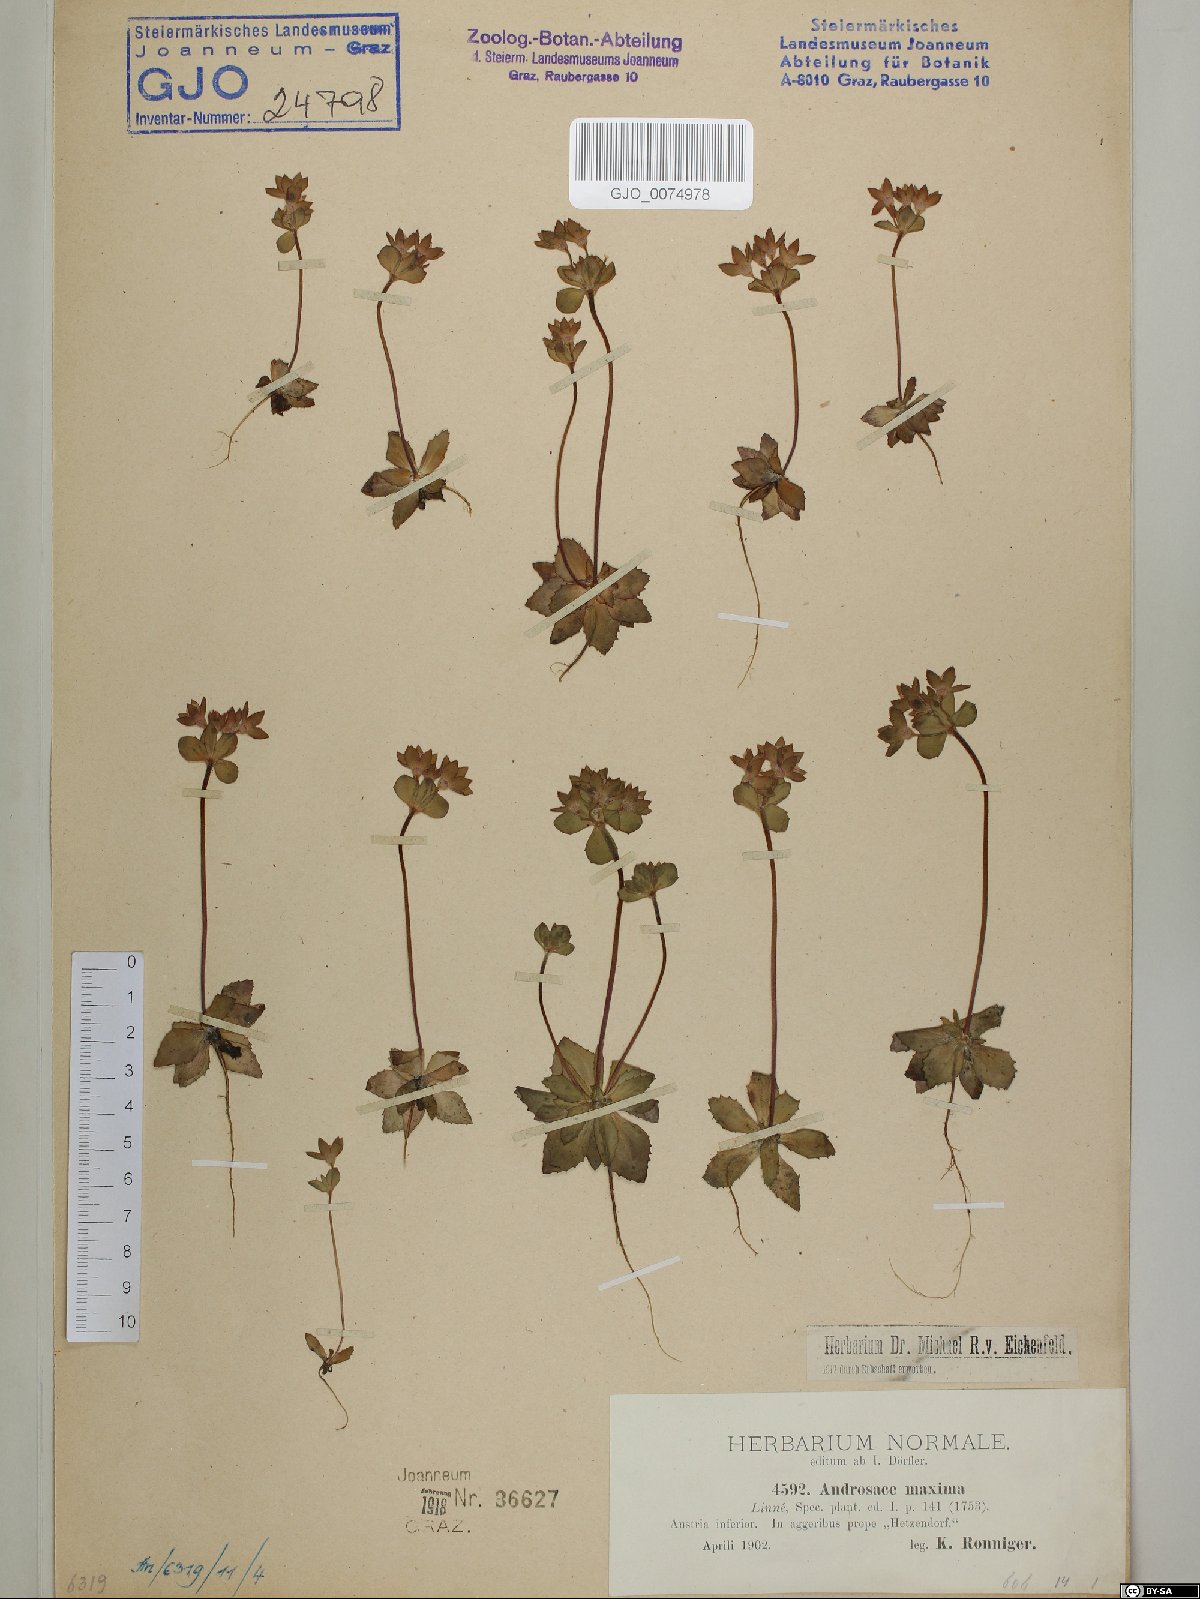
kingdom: Plantae
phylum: Tracheophyta
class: Magnoliopsida
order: Ericales
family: Primulaceae
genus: Androsace
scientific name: Androsace maxima
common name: Annual androsace
